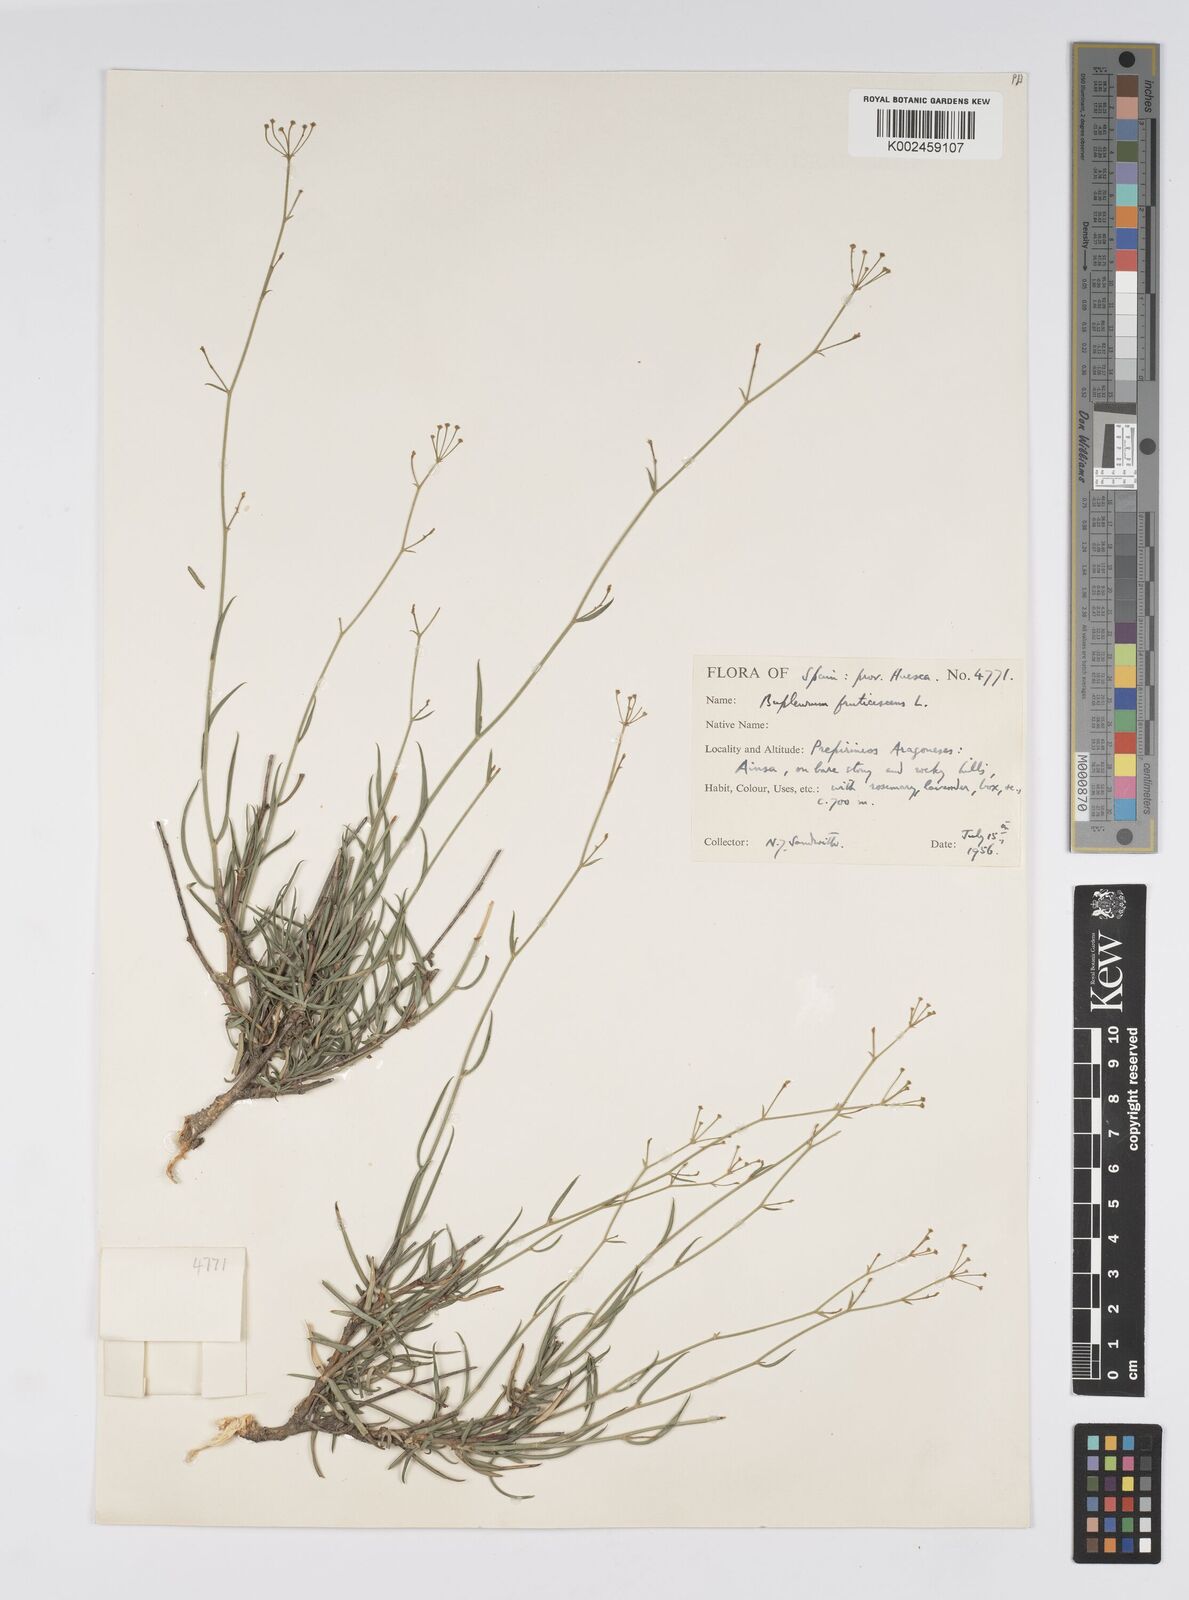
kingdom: Plantae
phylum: Tracheophyta
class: Magnoliopsida
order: Apiales
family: Apiaceae
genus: Bupleurum
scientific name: Bupleurum fruticescens
